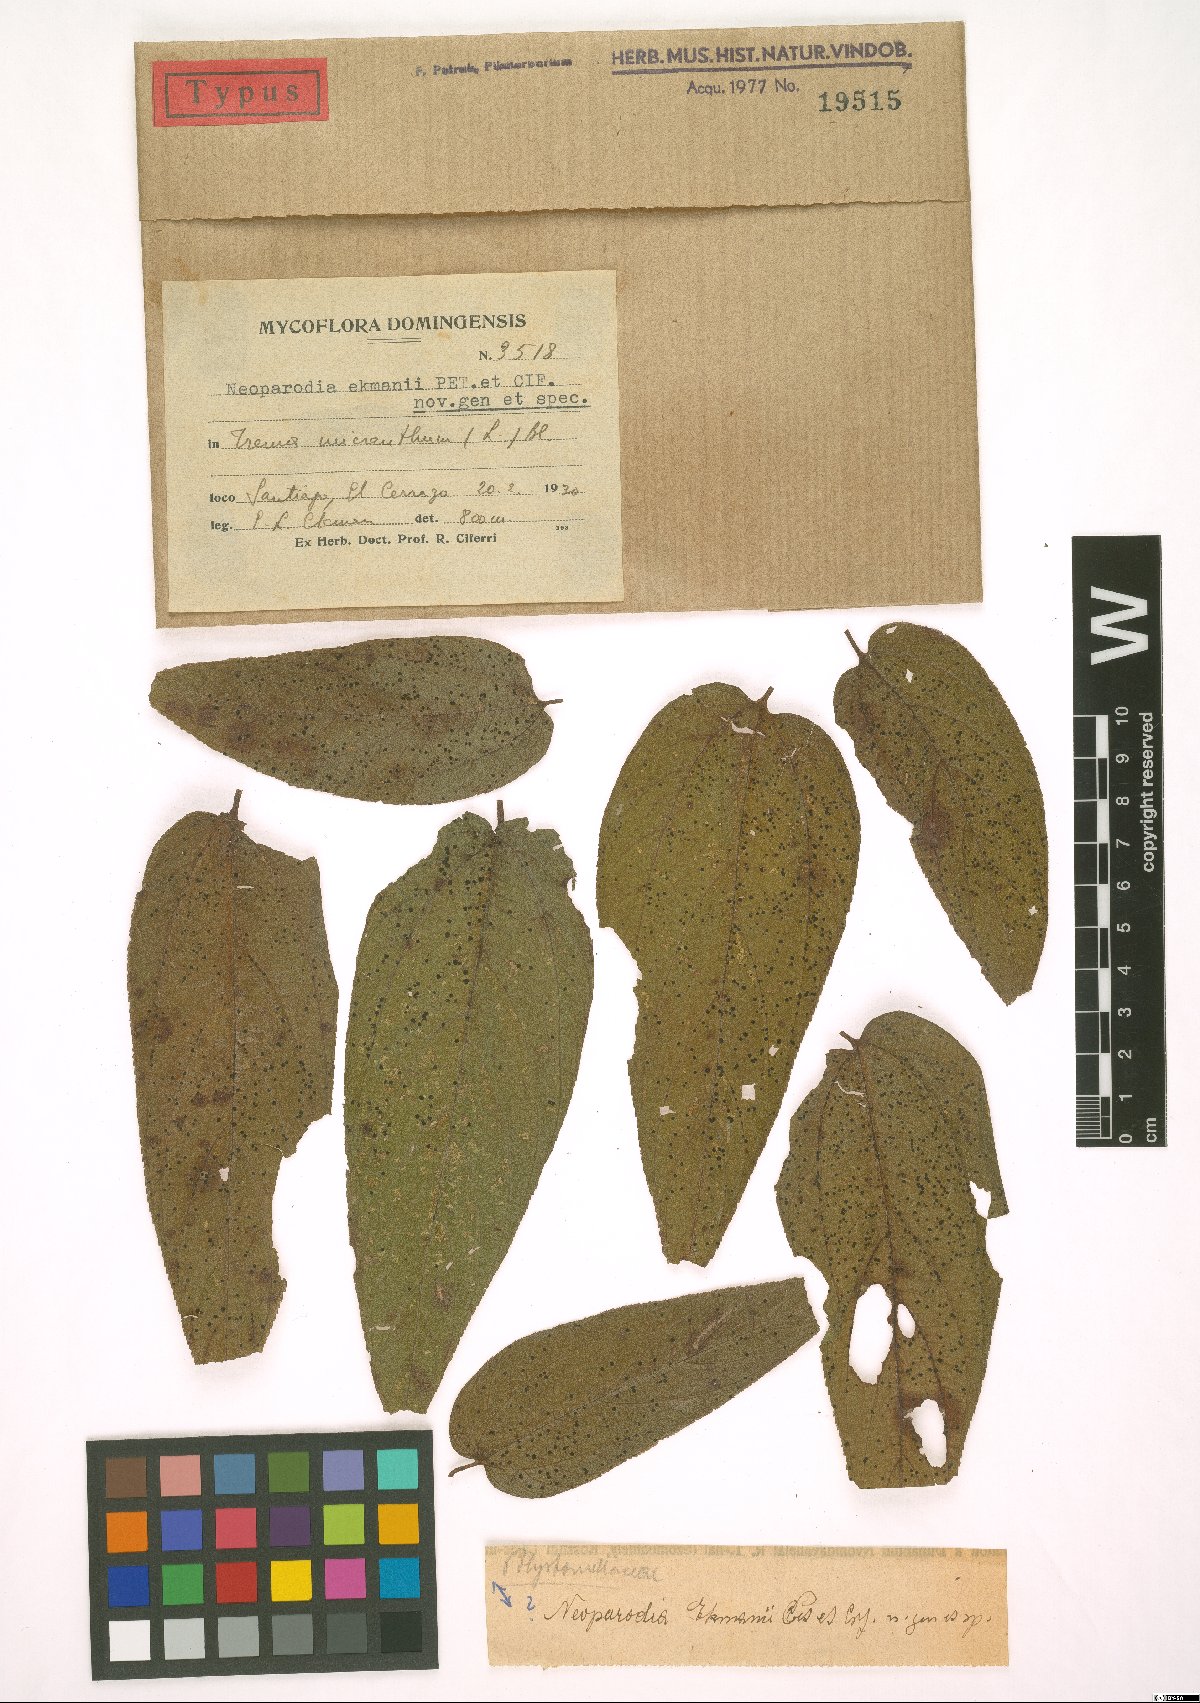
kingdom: Fungi
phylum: Ascomycota
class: Dothideomycetes
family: Neoparodiaceae
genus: Neoparodia
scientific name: Neoparodia ekmanii
